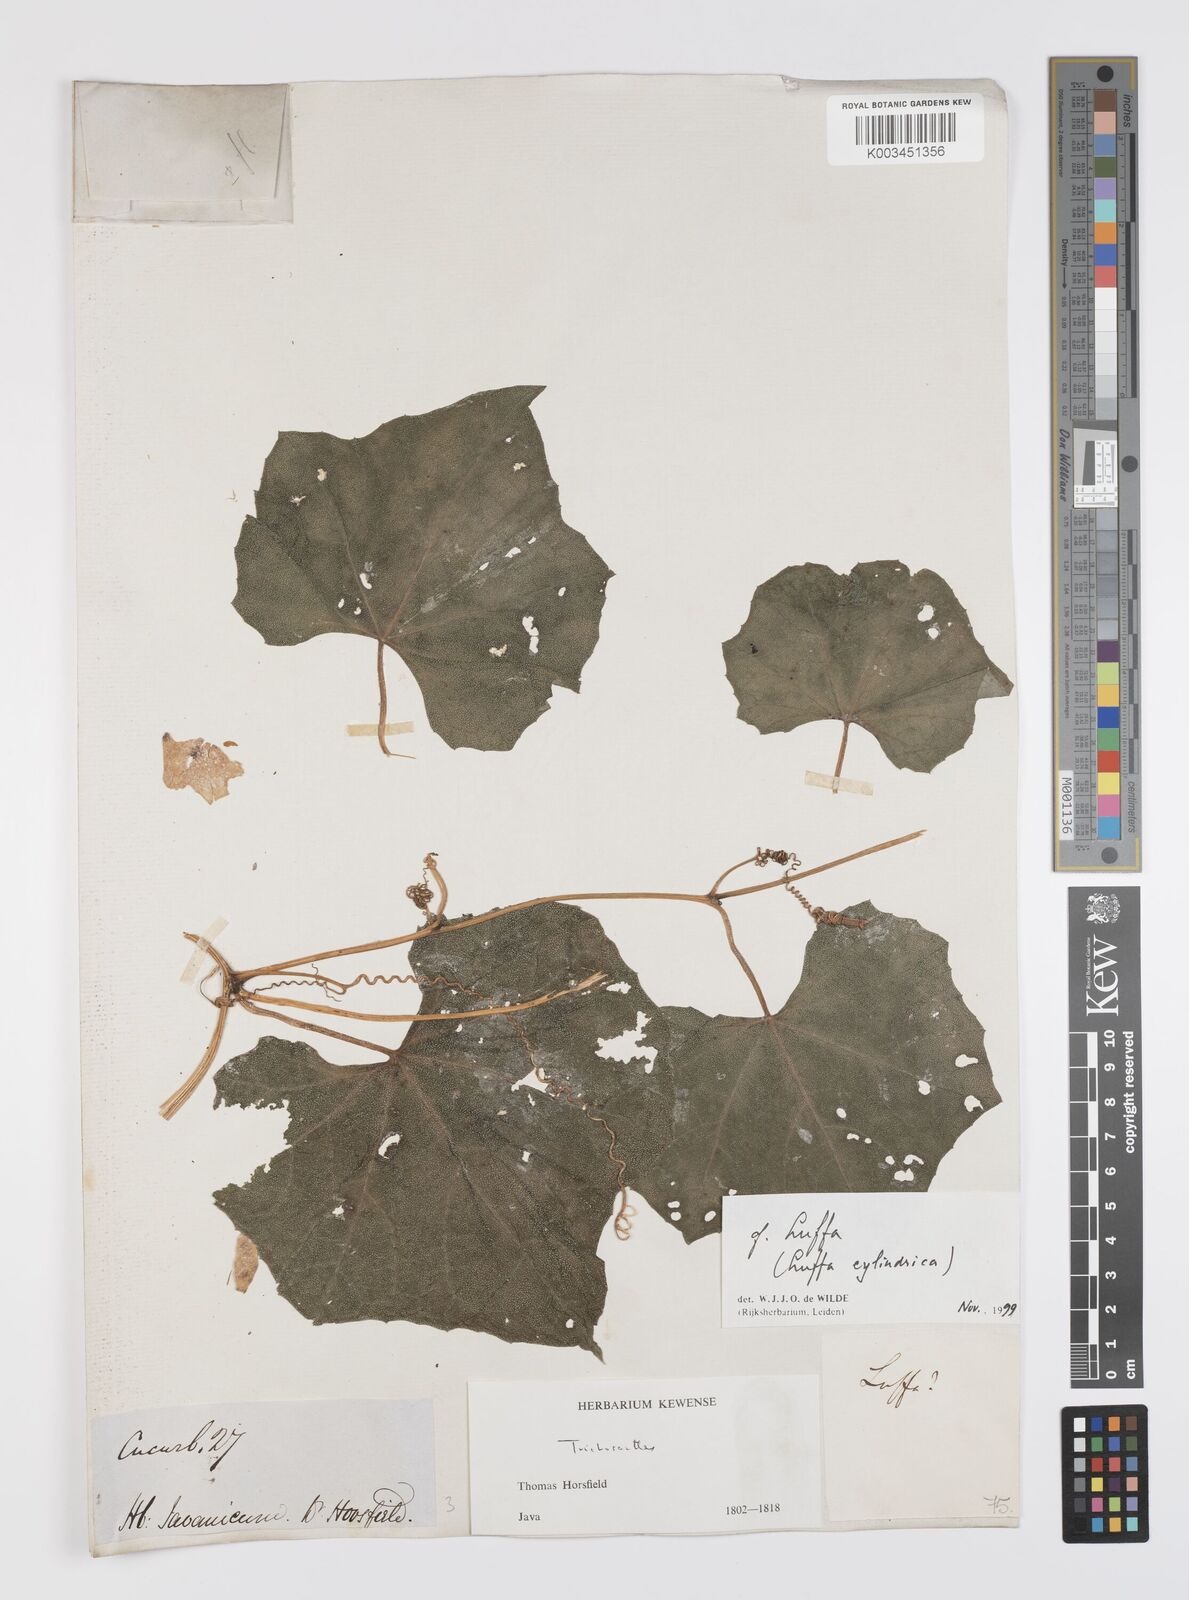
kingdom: Plantae
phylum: Tracheophyta
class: Magnoliopsida
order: Cucurbitales
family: Cucurbitaceae
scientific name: Cucurbitaceae
